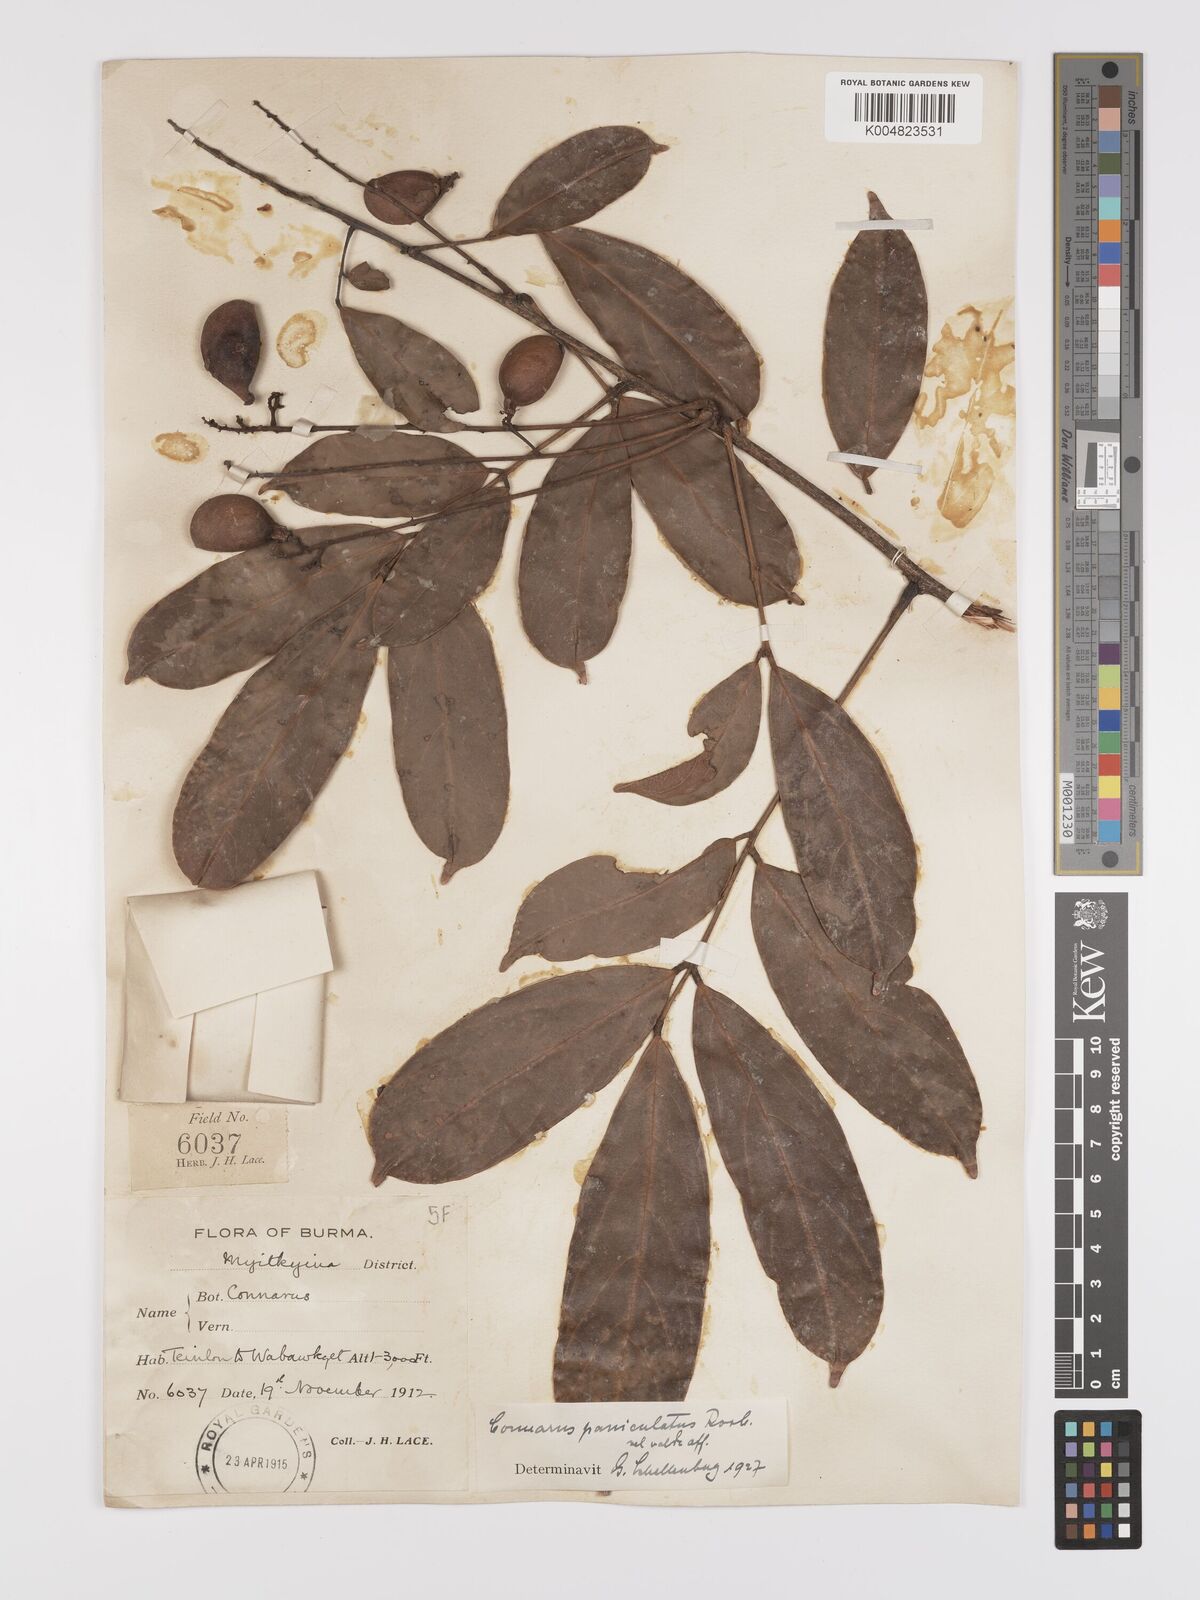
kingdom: Plantae
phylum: Tracheophyta
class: Magnoliopsida
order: Oxalidales
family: Connaraceae
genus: Connarus
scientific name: Connarus paniculatus
